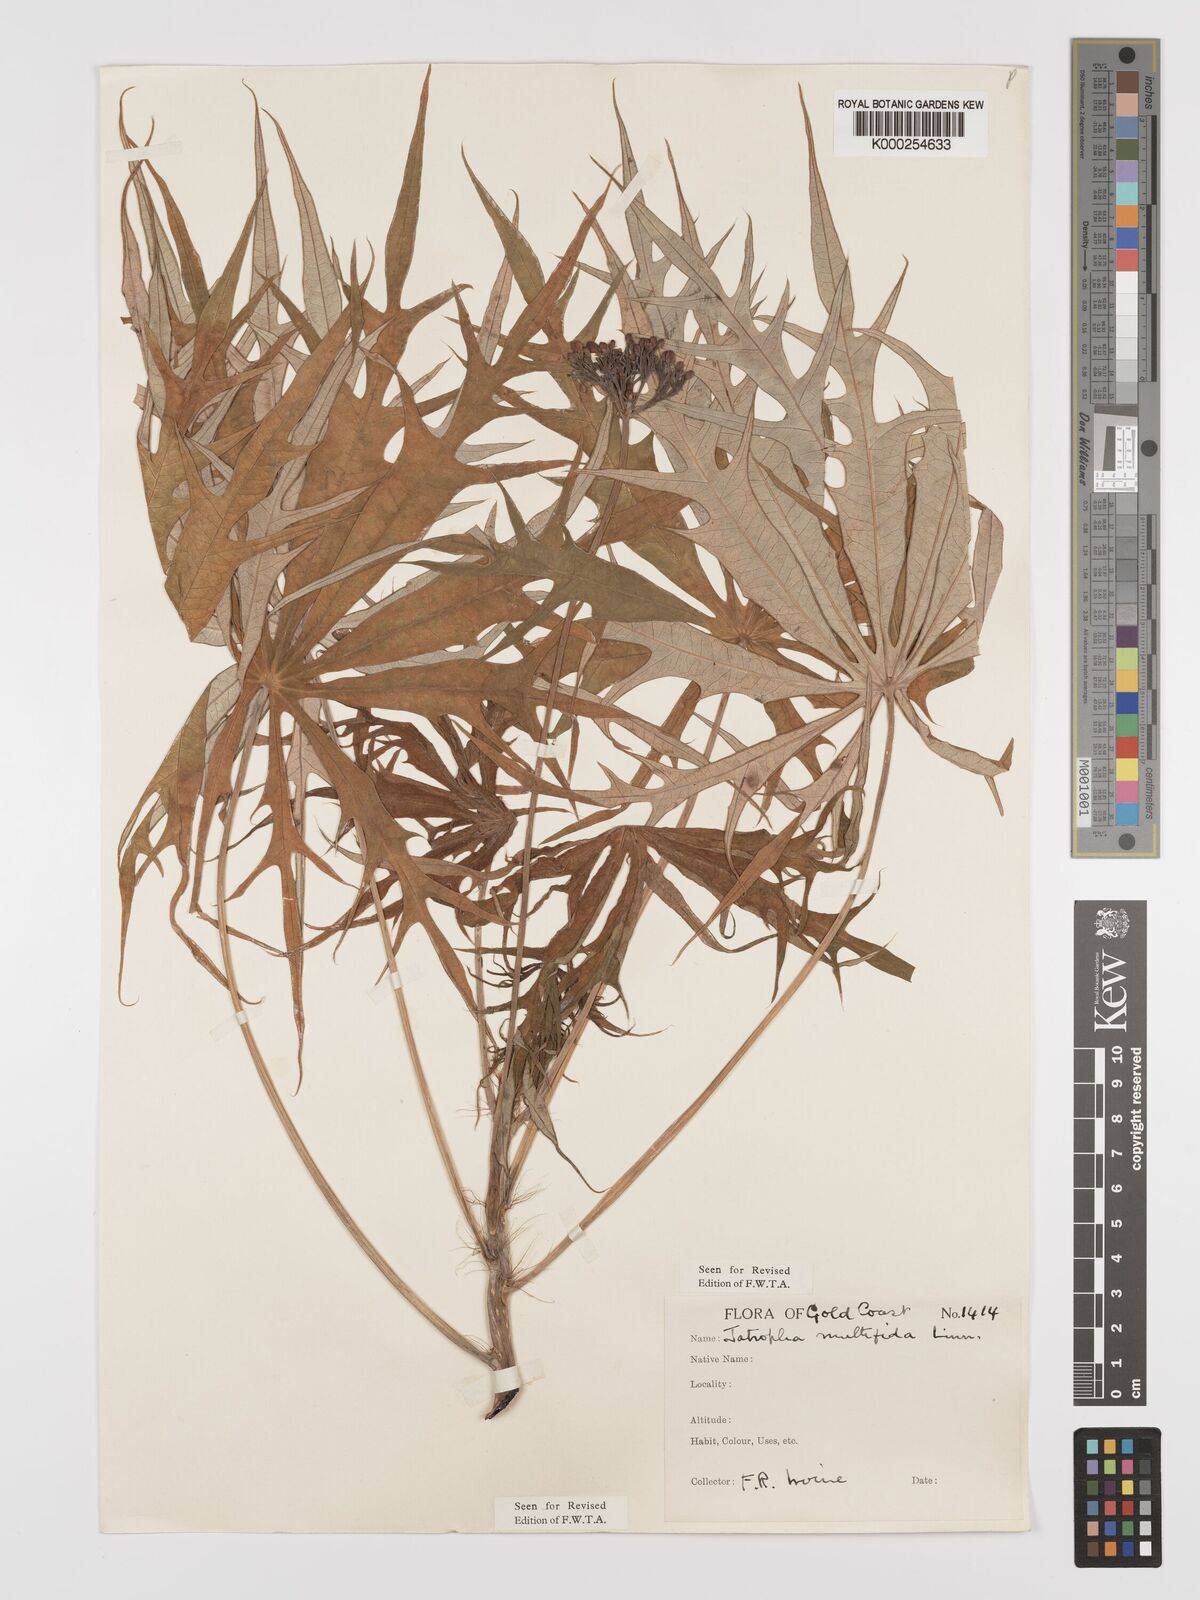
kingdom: Plantae
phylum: Tracheophyta
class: Magnoliopsida
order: Malpighiales
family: Euphorbiaceae
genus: Jatropha
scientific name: Jatropha multifida
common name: Coralbush
